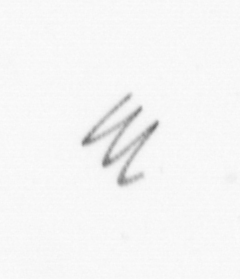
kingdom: Chromista
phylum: Ochrophyta
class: Bacillariophyceae
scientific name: Bacillariophyceae
